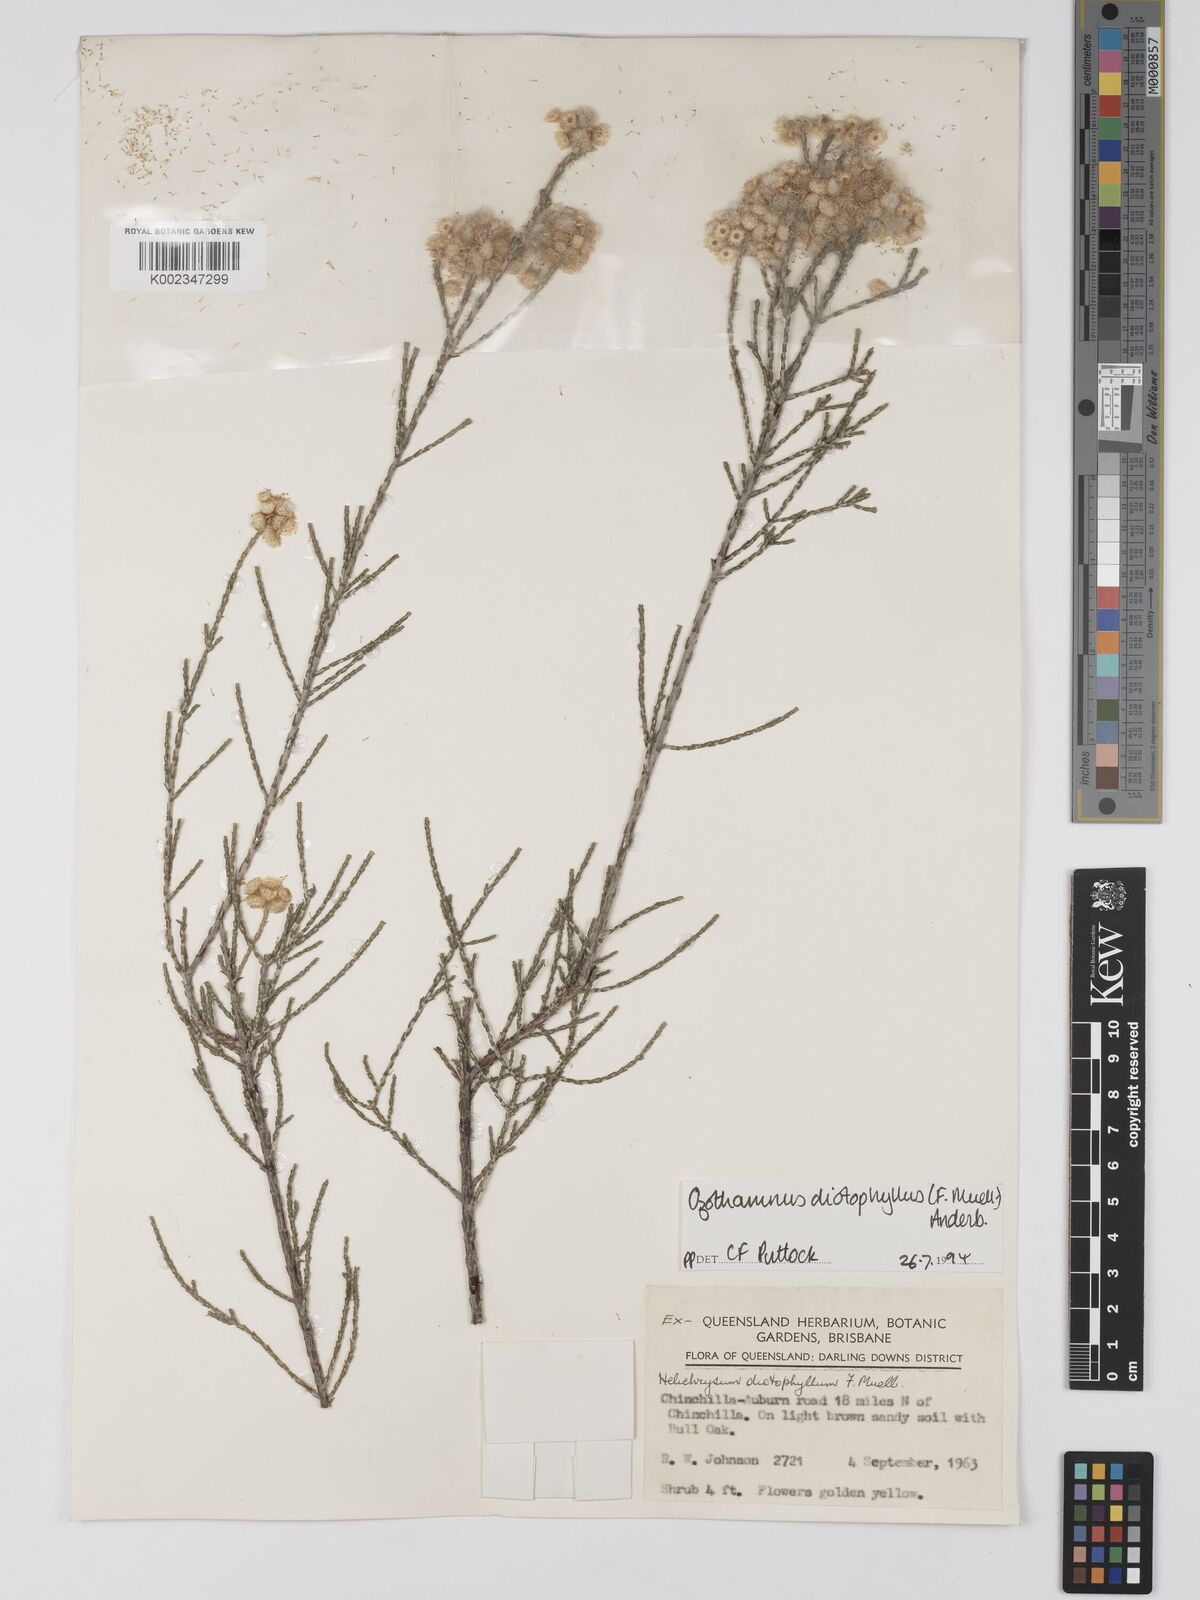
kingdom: Plantae
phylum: Tracheophyta
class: Magnoliopsida
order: Asterales
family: Asteraceae
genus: Ozothamnus
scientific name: Ozothamnus diotophyllus
